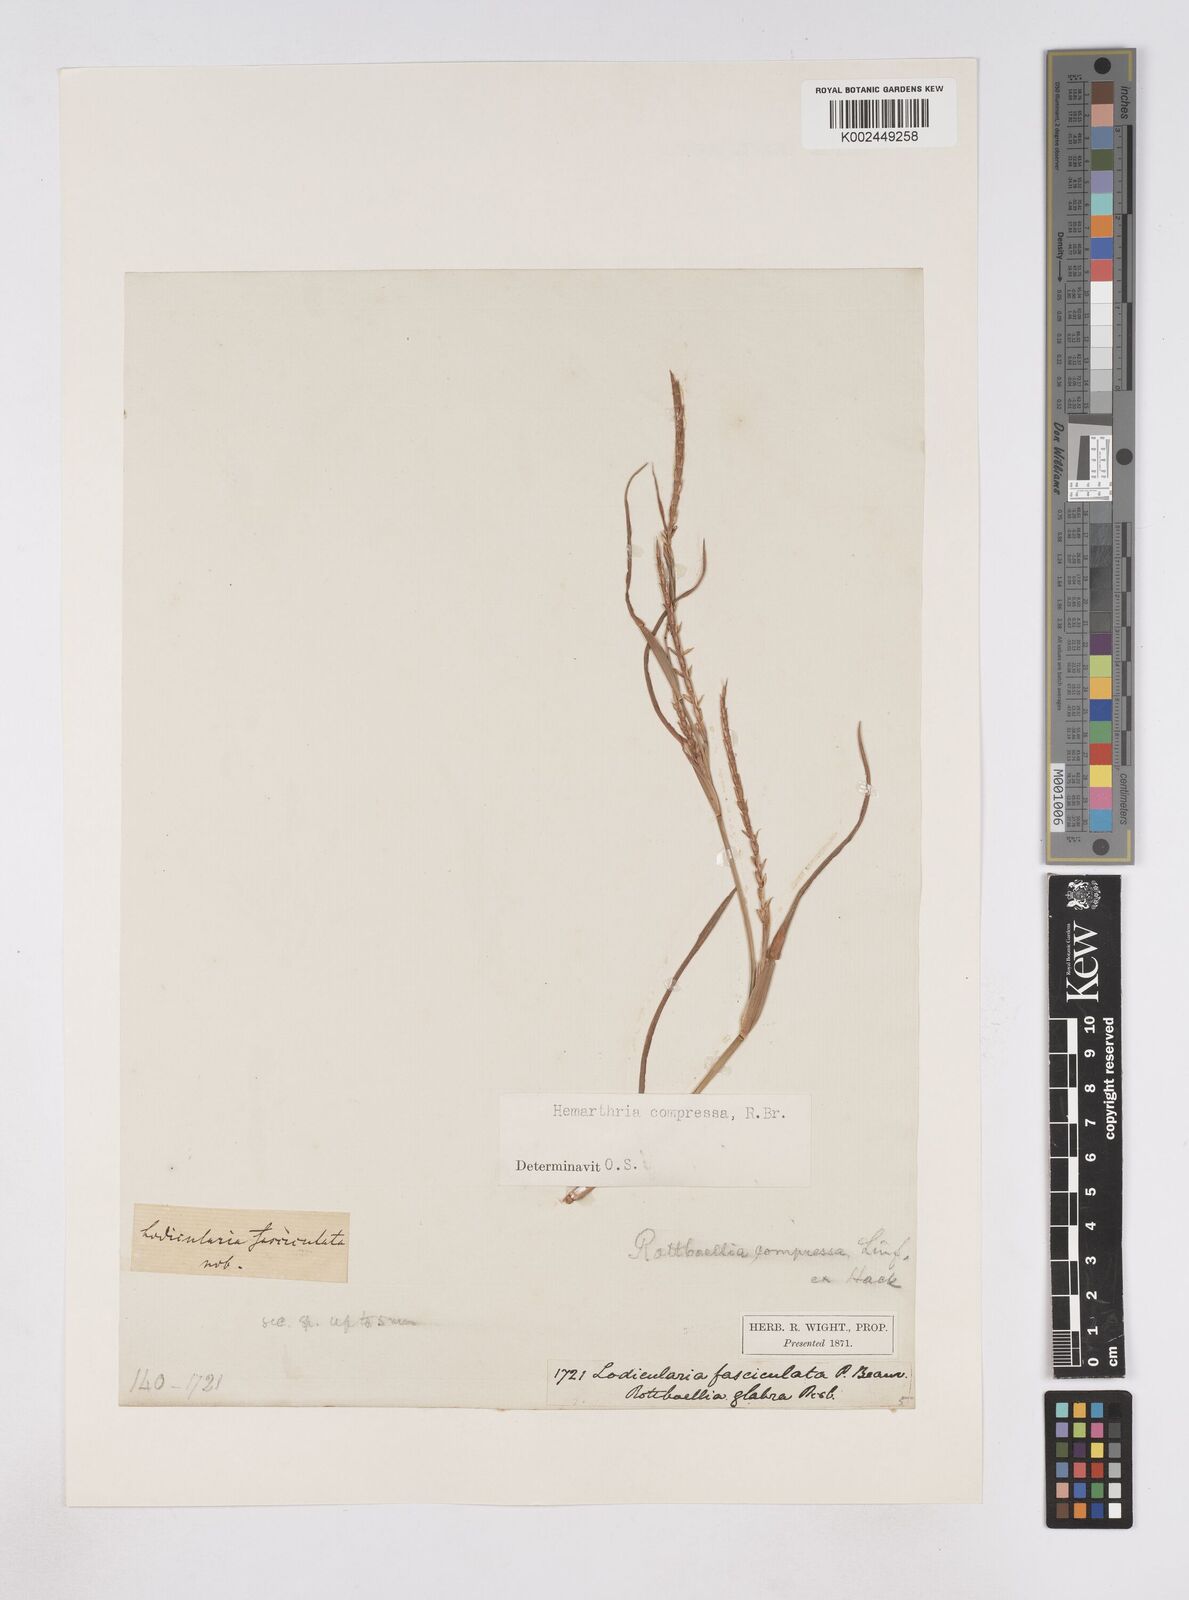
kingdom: Plantae
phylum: Tracheophyta
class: Liliopsida
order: Poales
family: Poaceae
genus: Hemarthria
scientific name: Hemarthria compressa
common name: Whip grass
